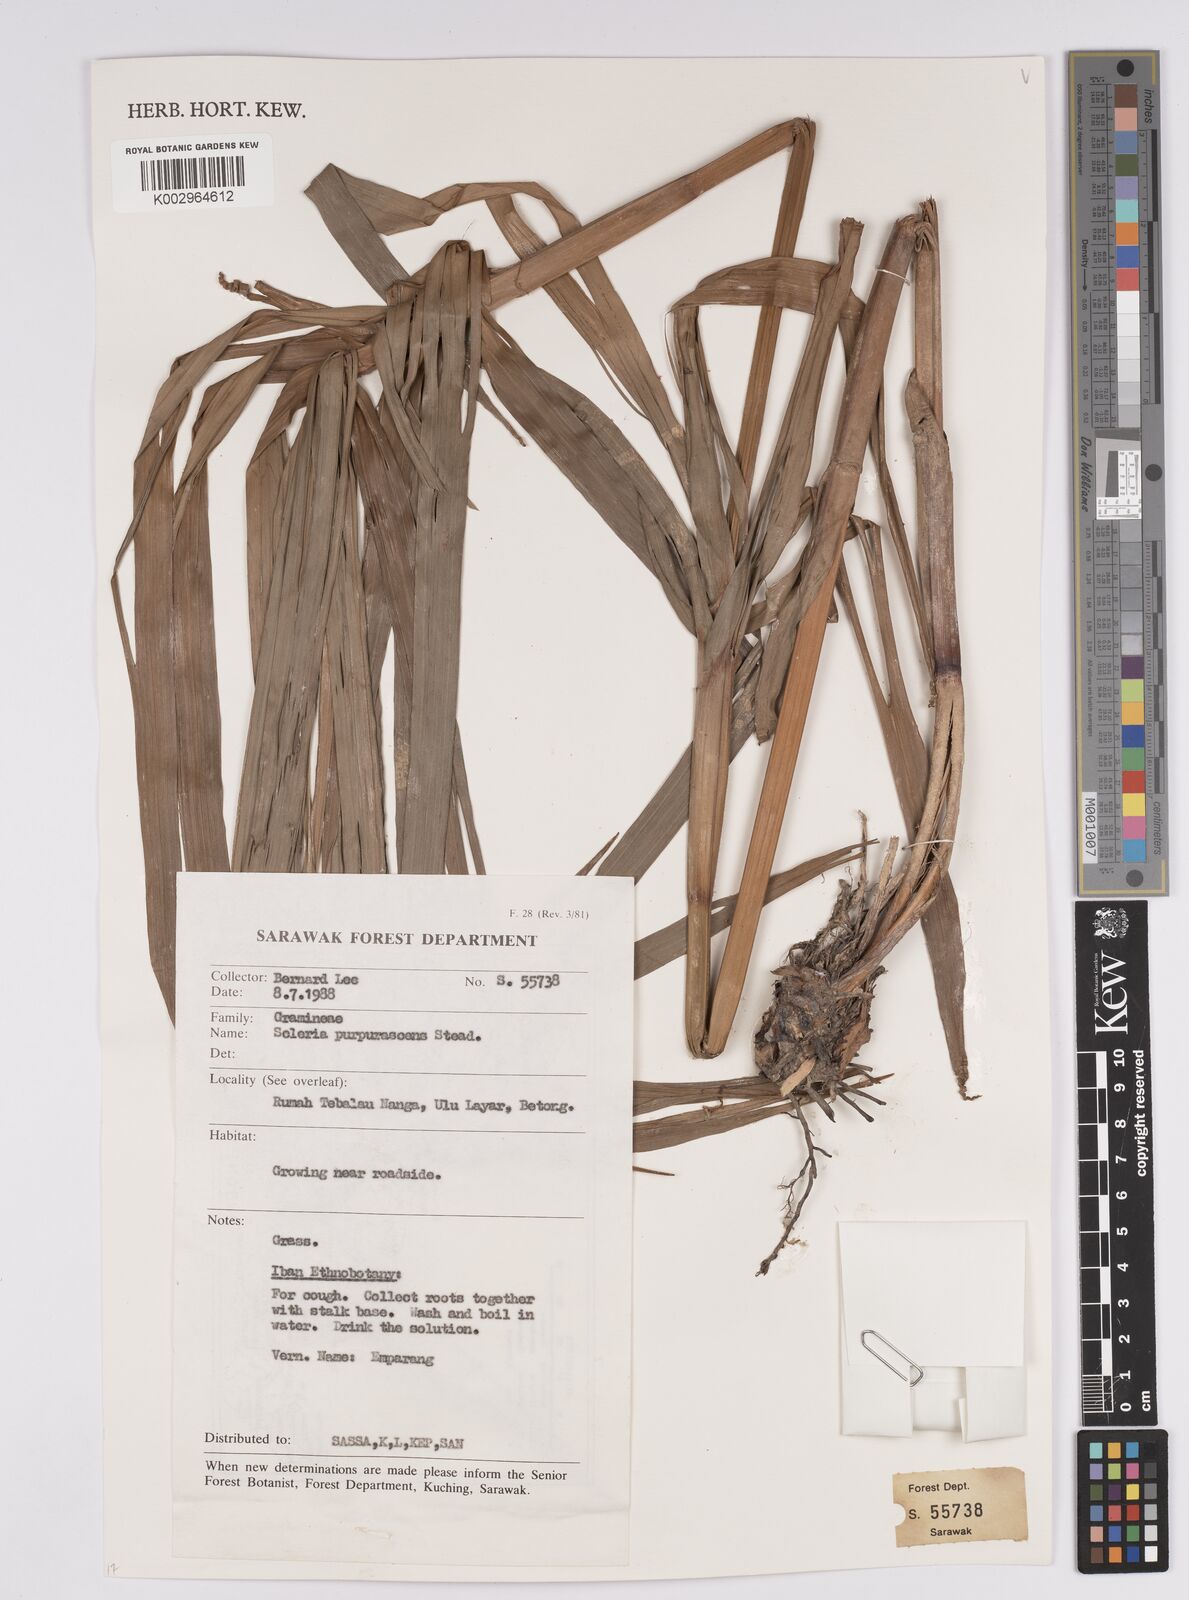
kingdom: Plantae
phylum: Tracheophyta
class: Liliopsida
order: Poales
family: Cyperaceae
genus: Scleria
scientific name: Scleria purpurascens
